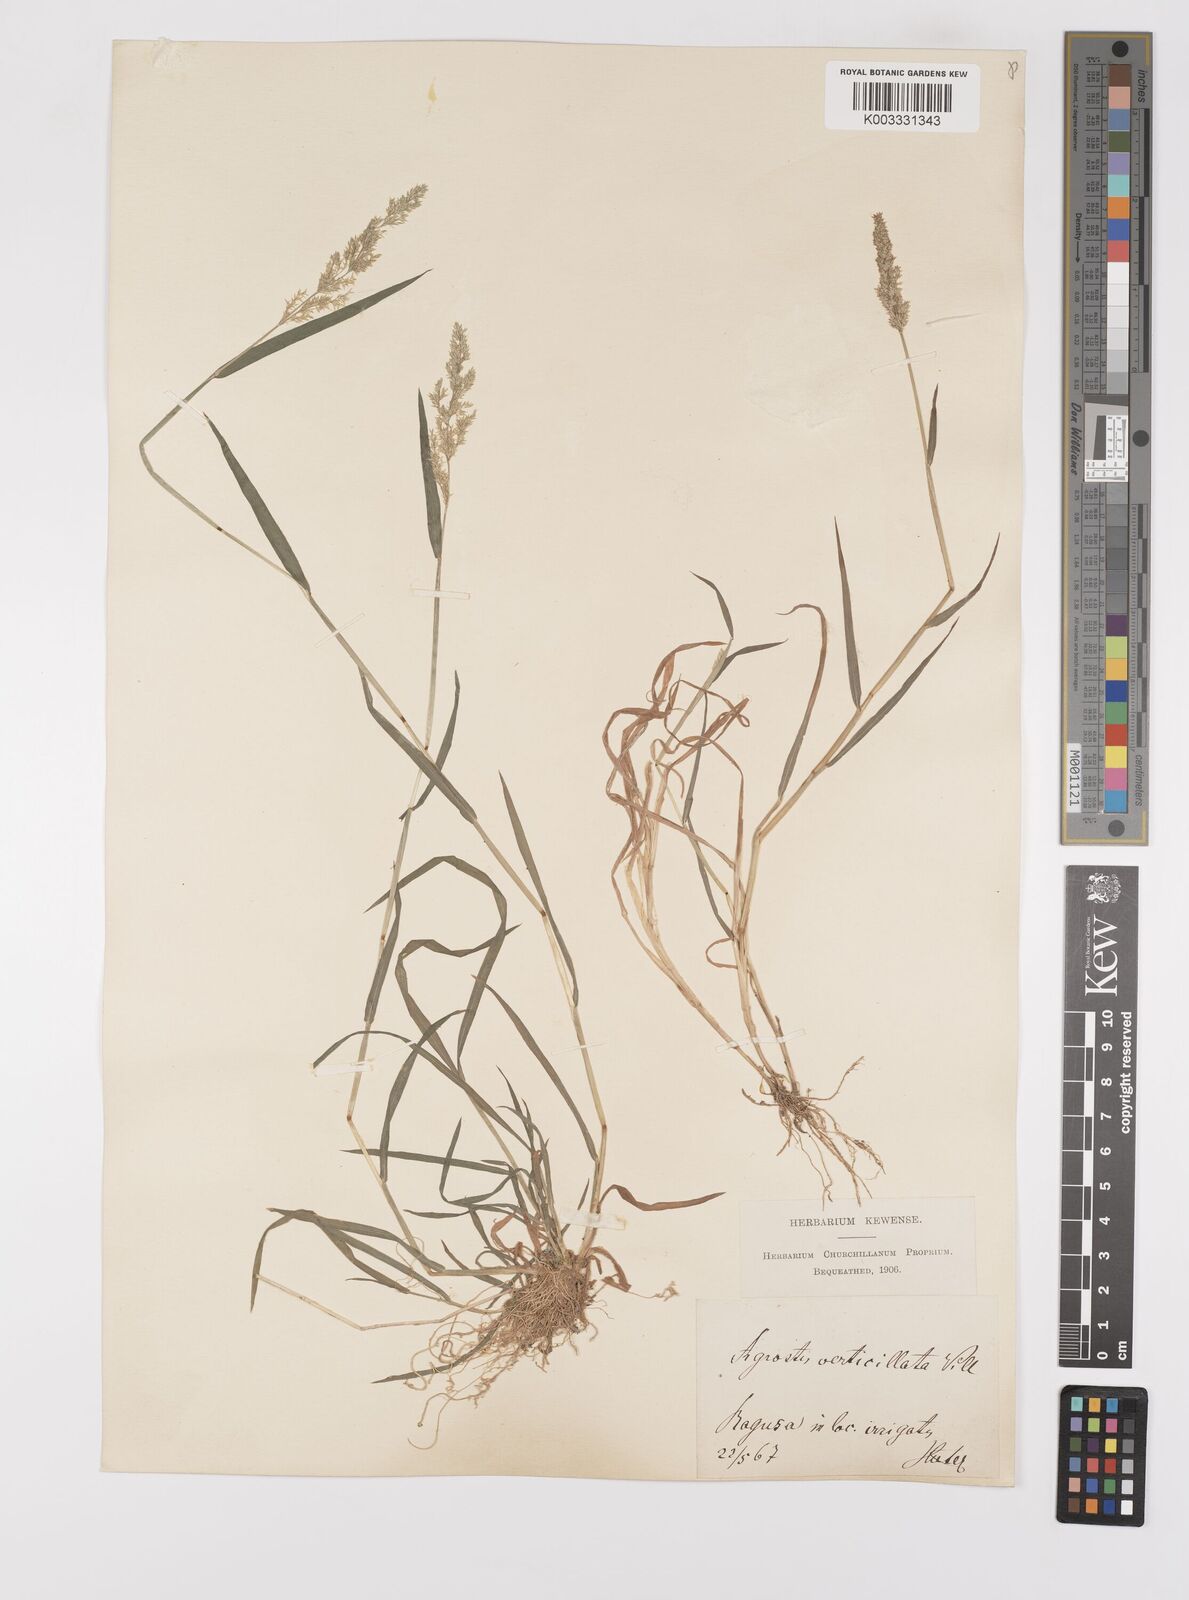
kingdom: Plantae
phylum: Tracheophyta
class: Liliopsida
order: Poales
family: Poaceae
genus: Polypogon
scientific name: Polypogon viridis
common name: Water bent
